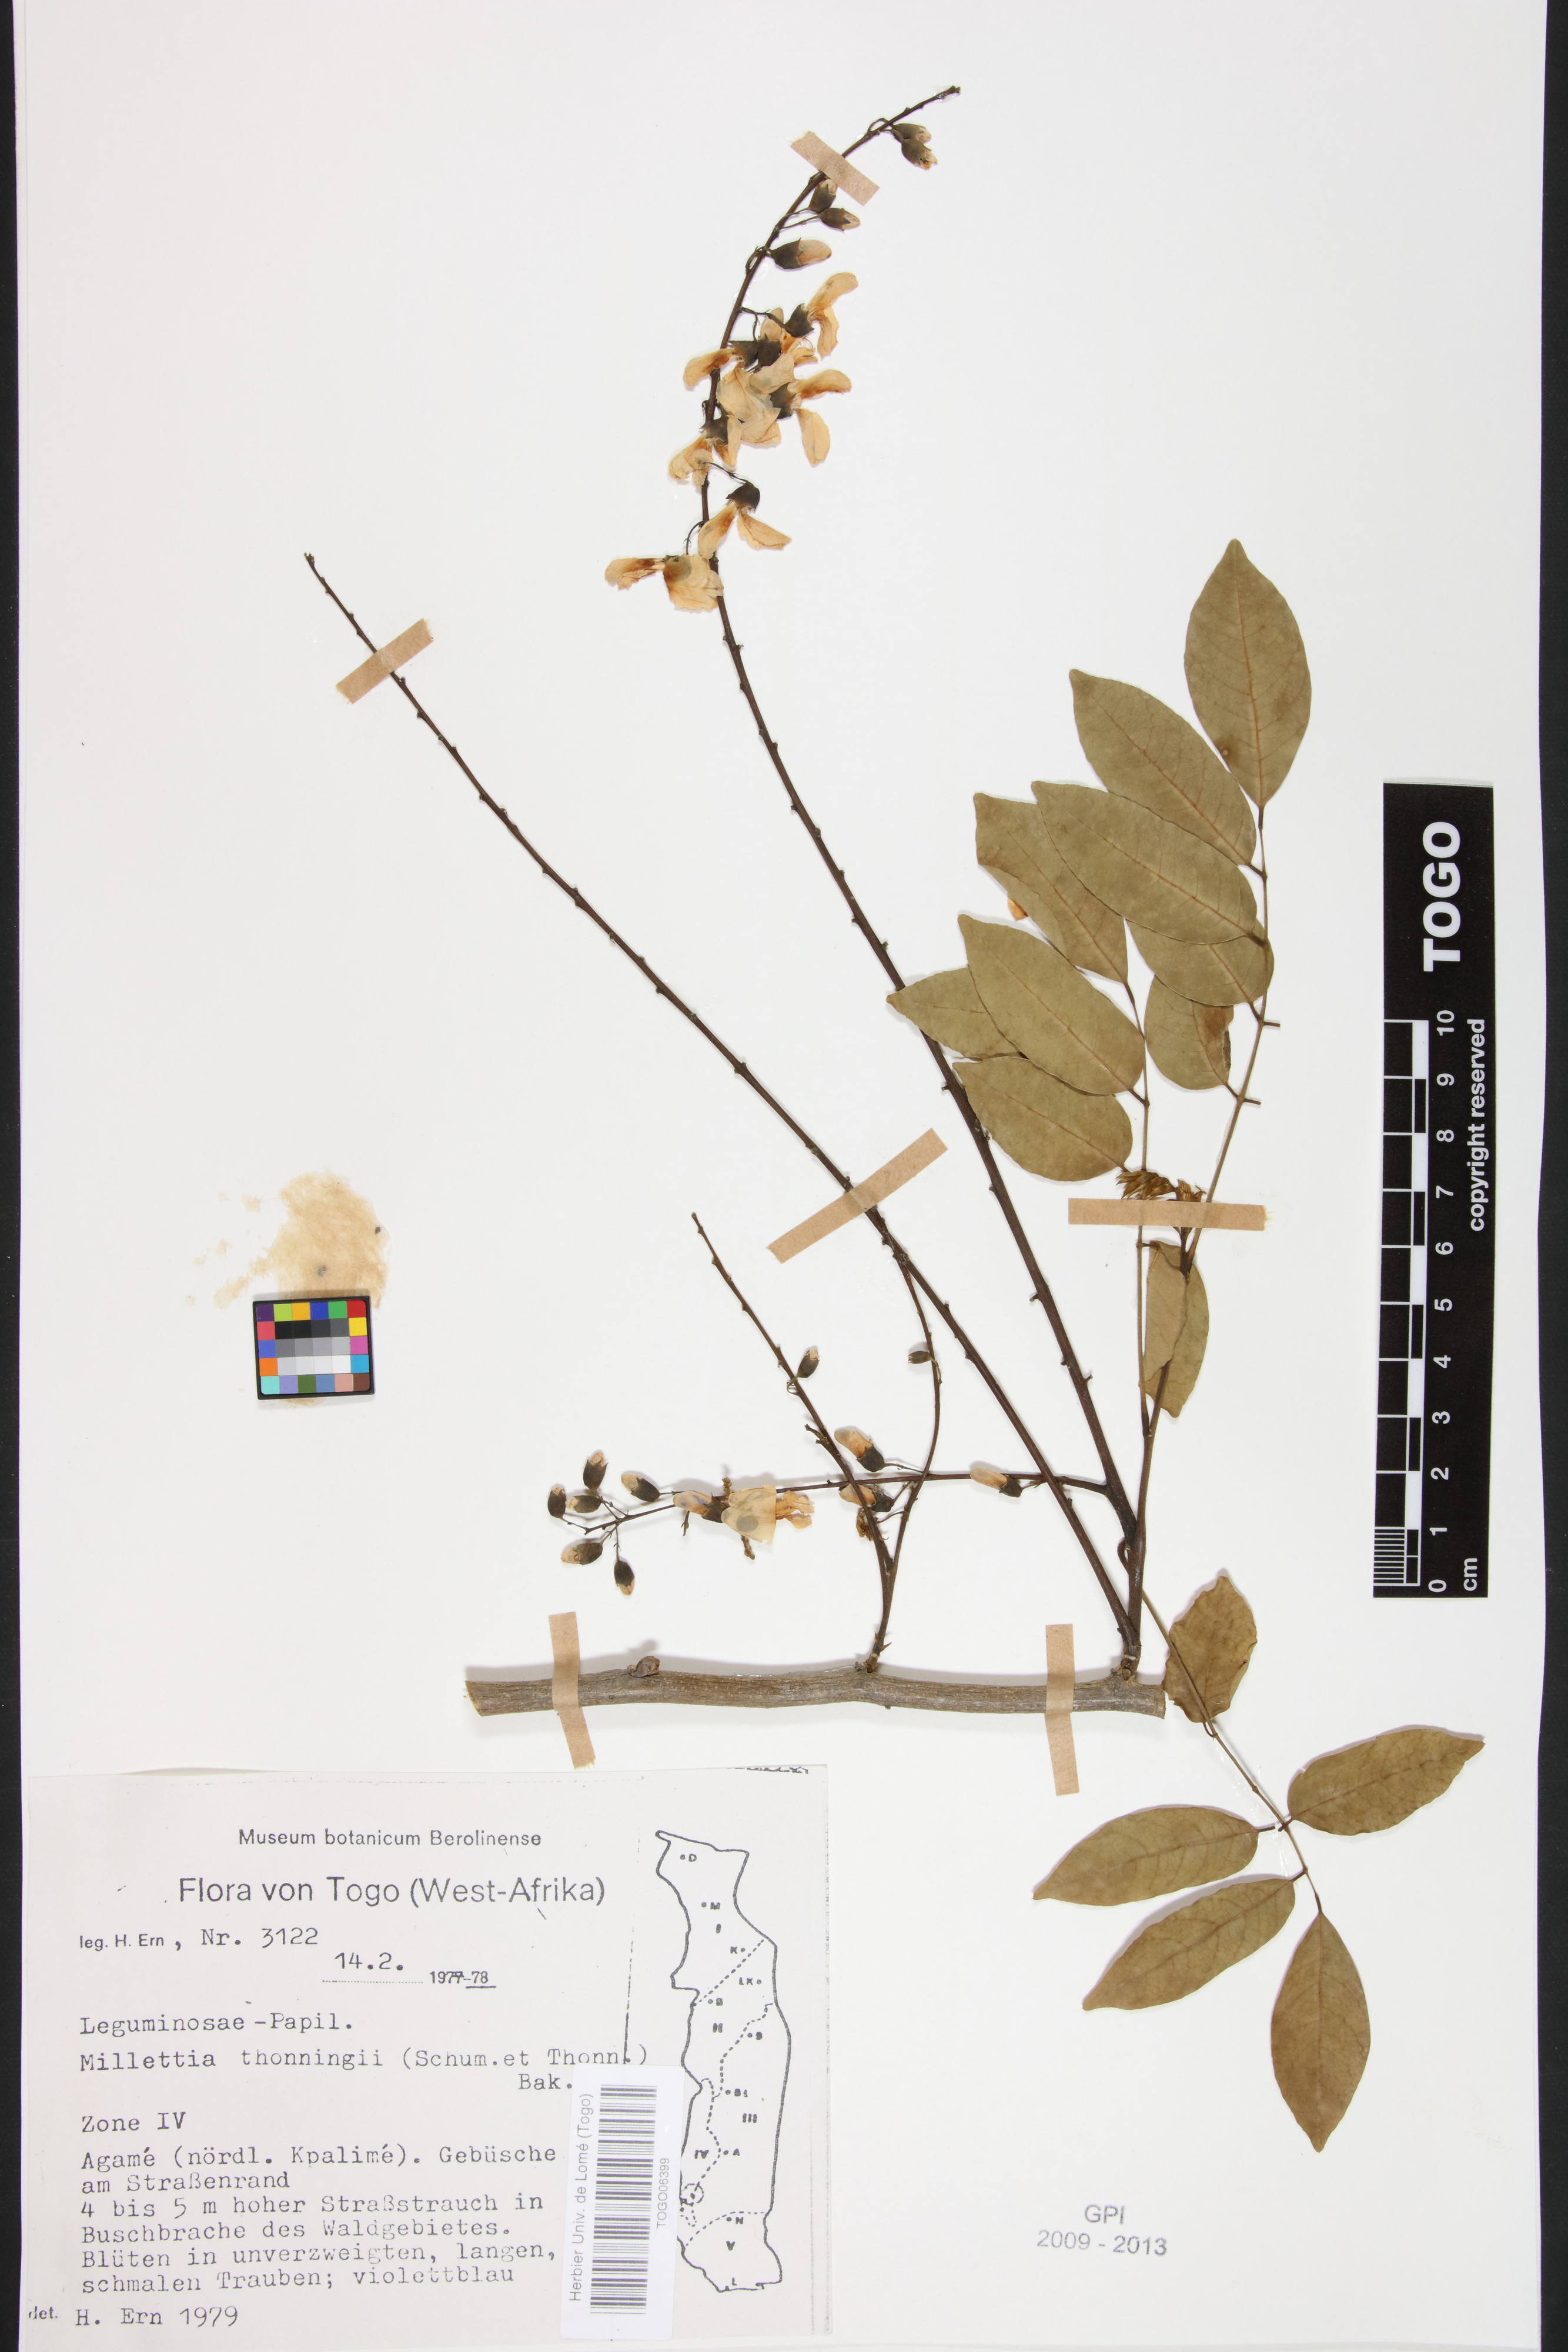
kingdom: Plantae
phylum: Tracheophyta
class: Magnoliopsida
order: Fabales
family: Fabaceae
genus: Millettia
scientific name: Millettia thonningii
